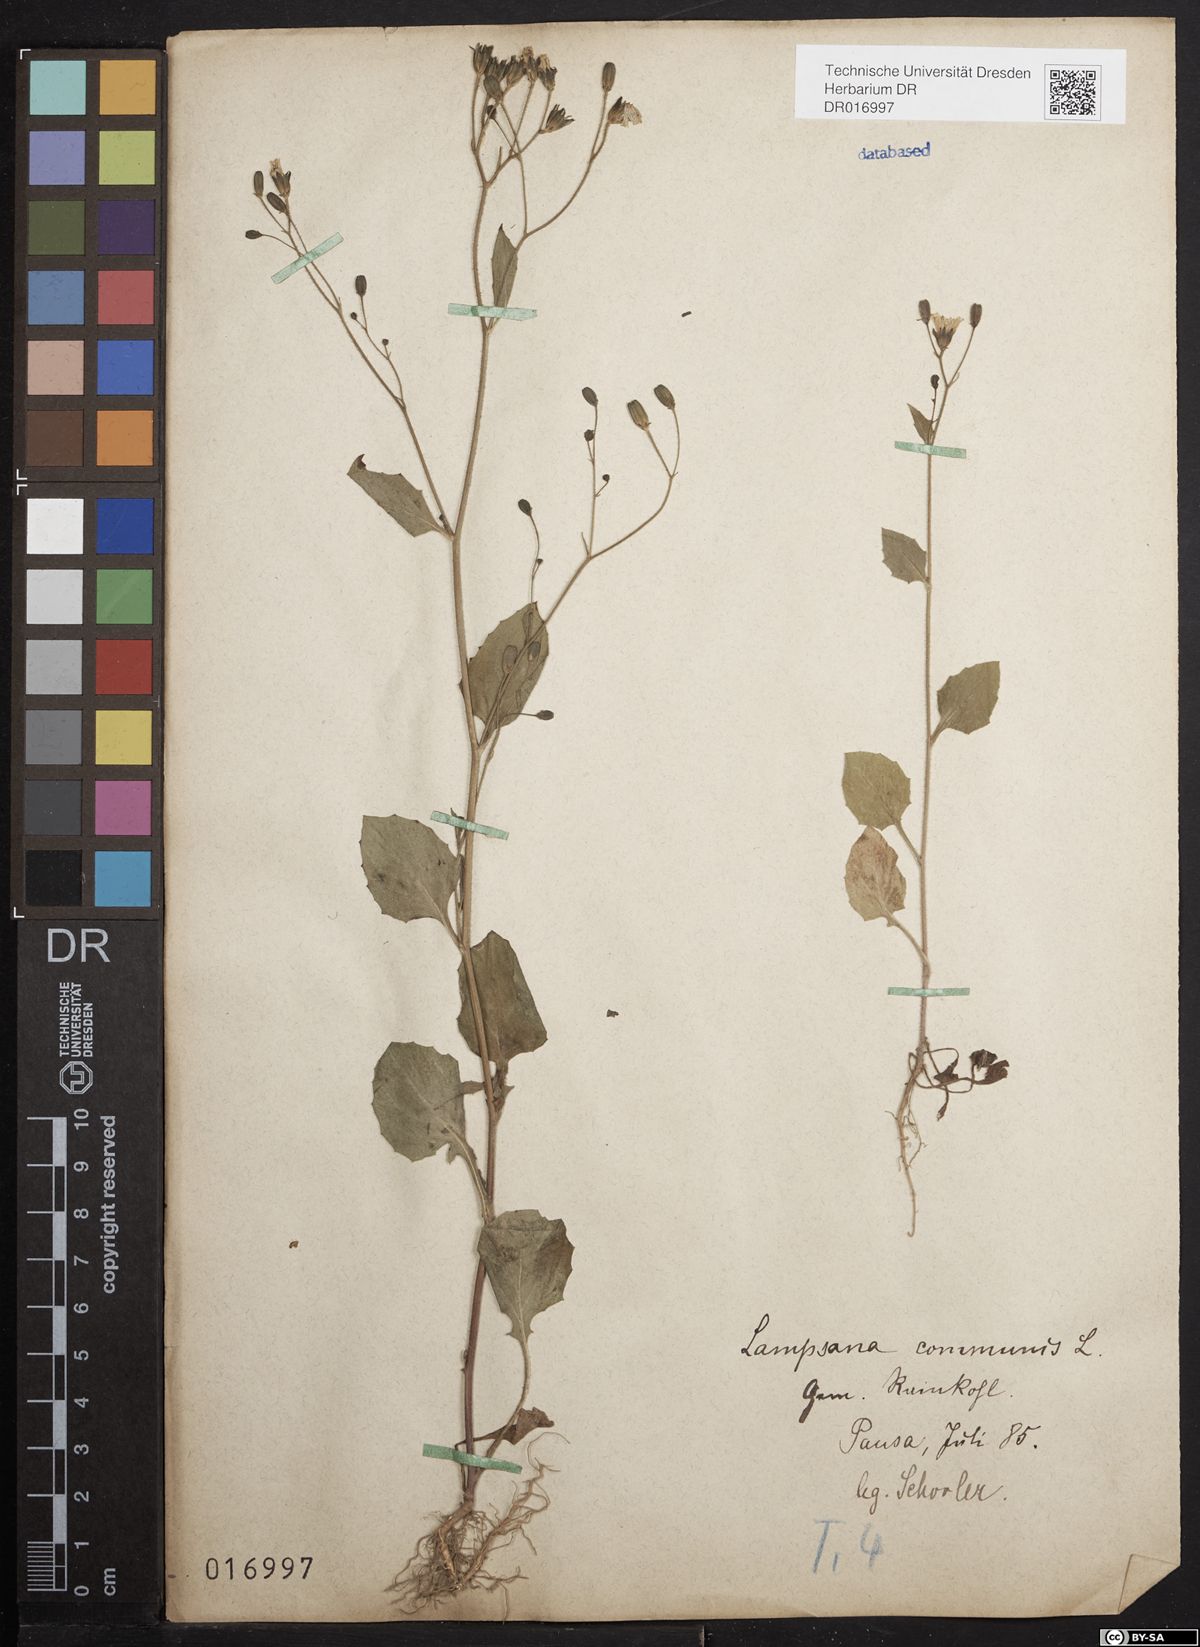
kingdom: Plantae
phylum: Tracheophyta
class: Magnoliopsida
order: Asterales
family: Asteraceae
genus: Lapsana
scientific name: Lapsana communis
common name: Nipplewort
